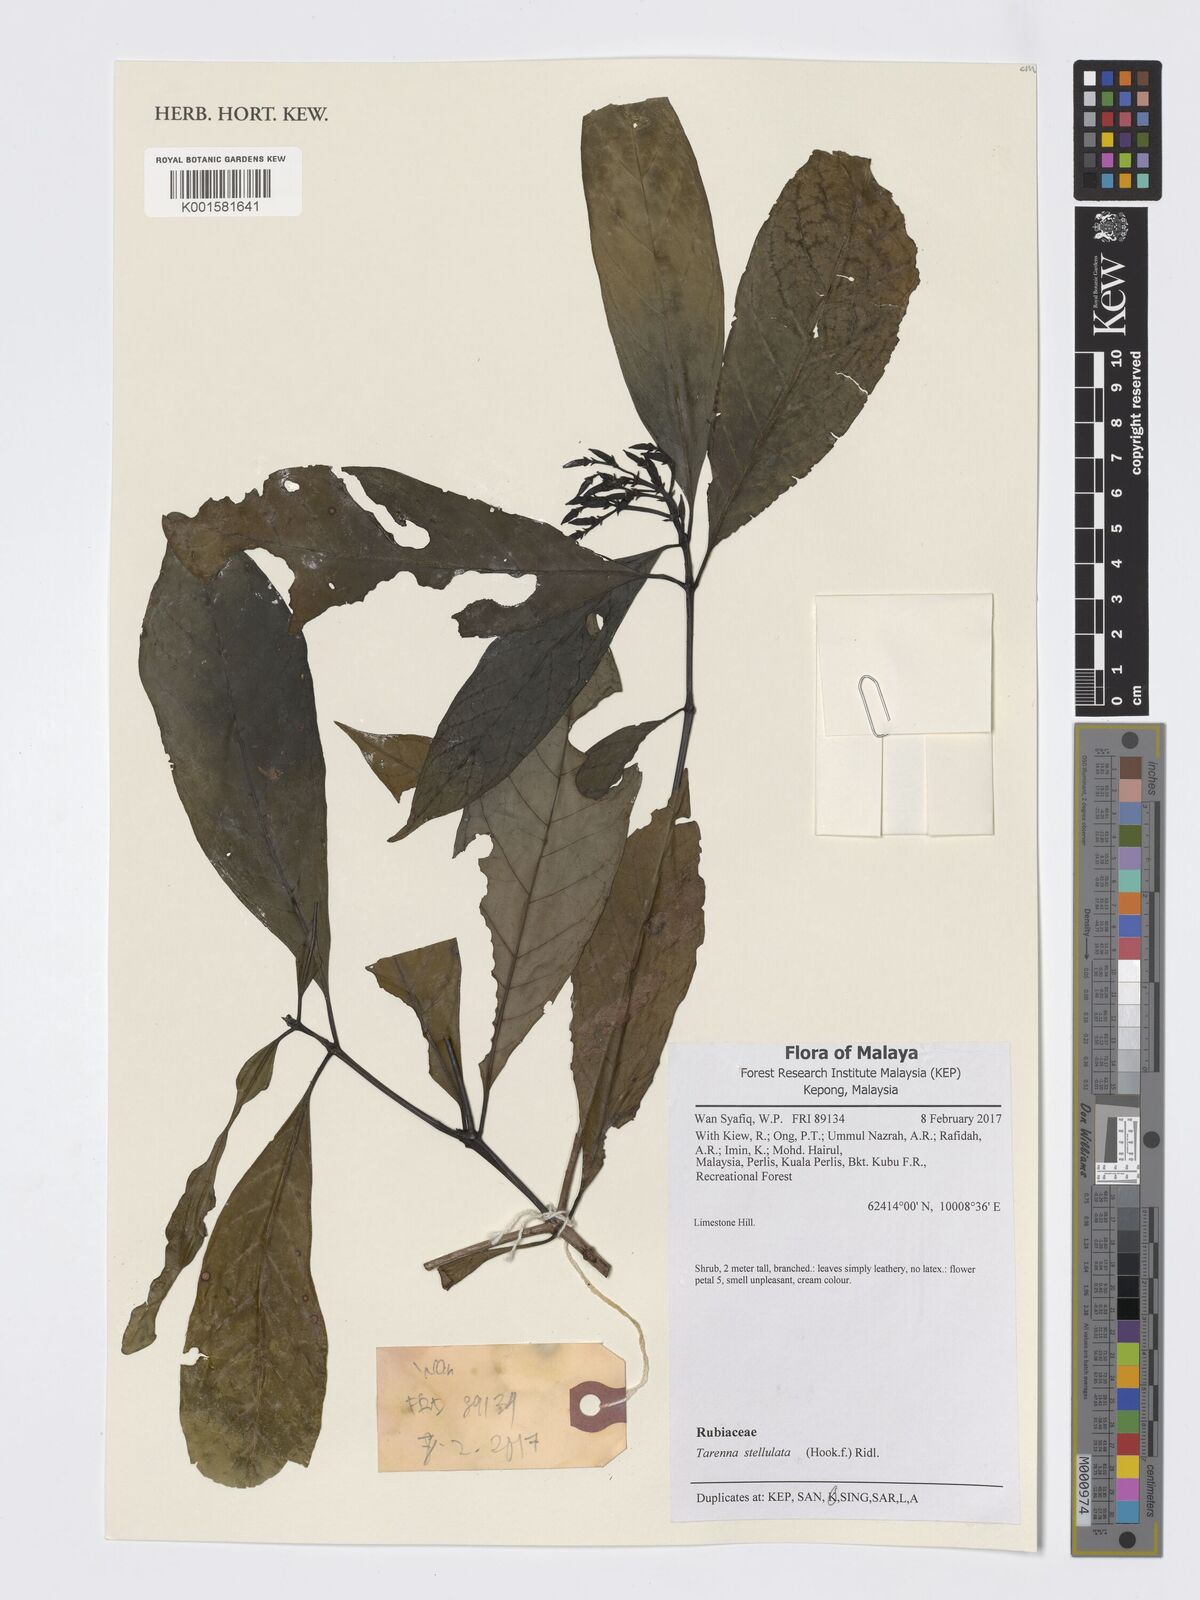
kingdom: Plantae
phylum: Tracheophyta
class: Magnoliopsida
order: Gentianales
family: Rubiaceae
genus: Tarenna
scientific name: Tarenna stellulata
